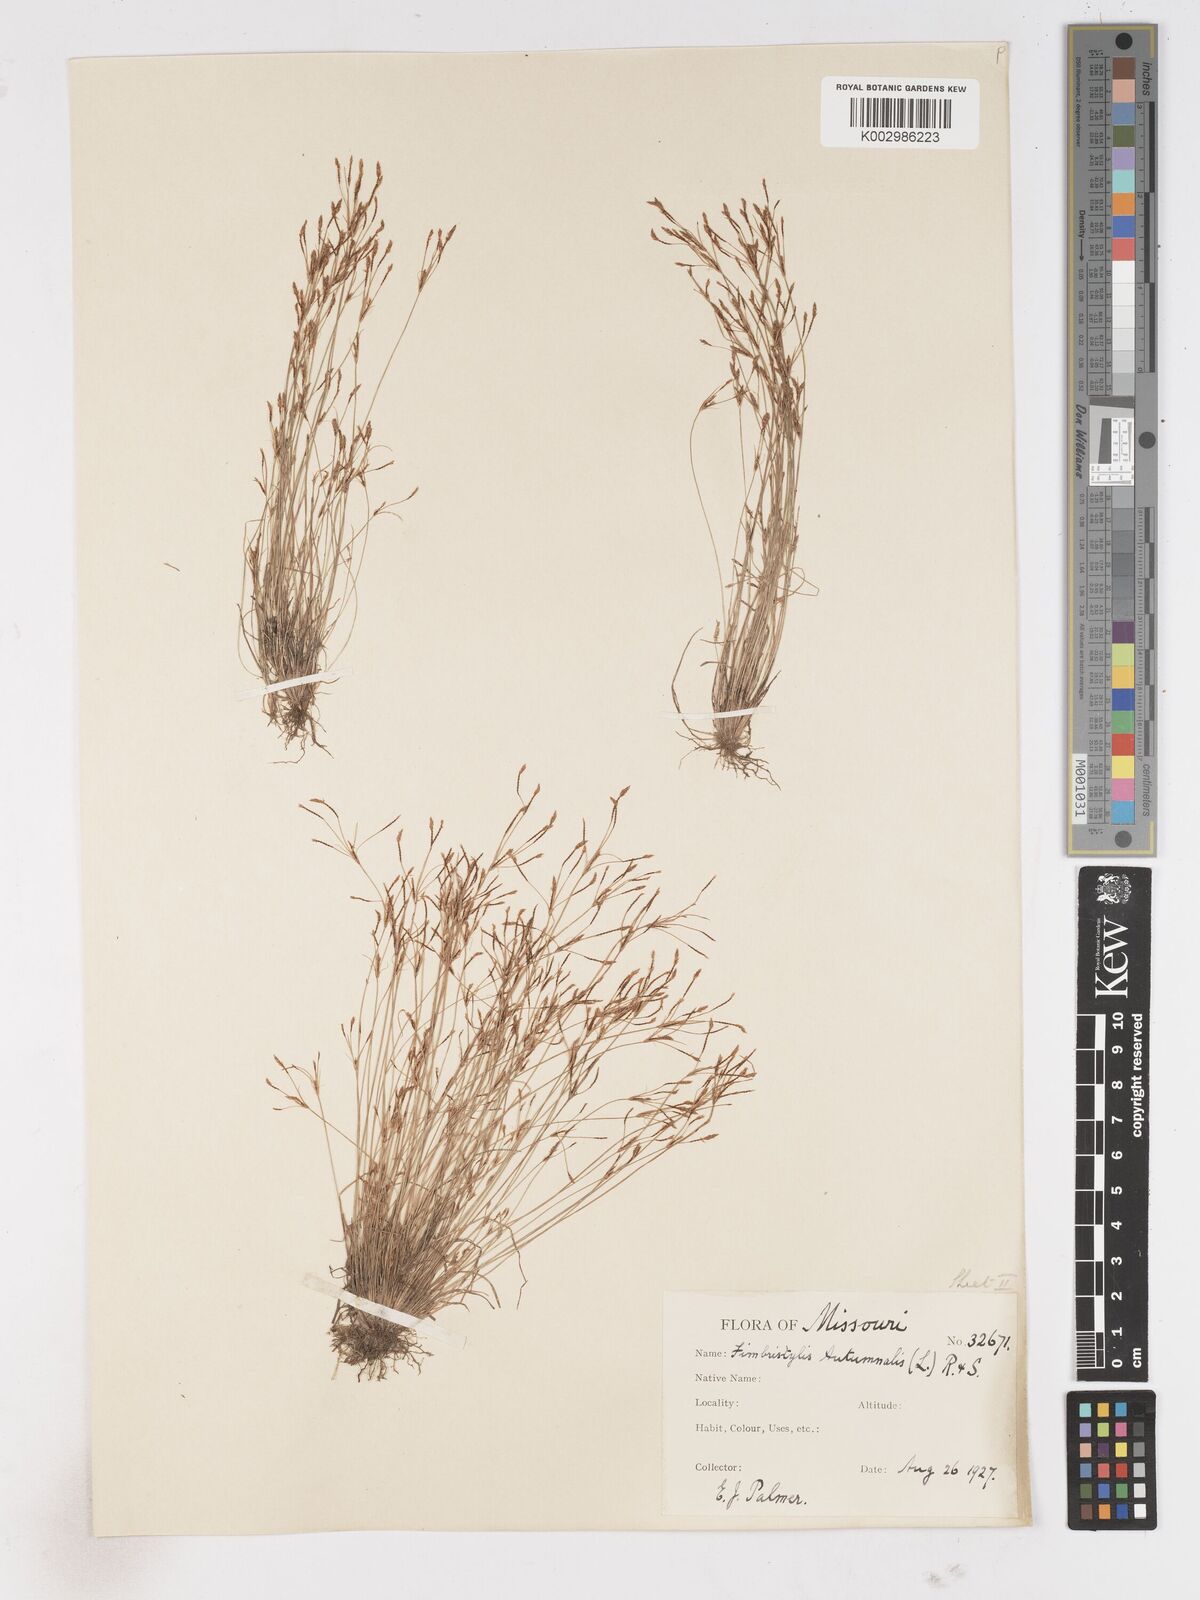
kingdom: Plantae
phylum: Tracheophyta
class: Liliopsida
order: Poales
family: Cyperaceae
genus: Fimbristylis
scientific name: Fimbristylis autumnalis
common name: Slender fimbristylis
